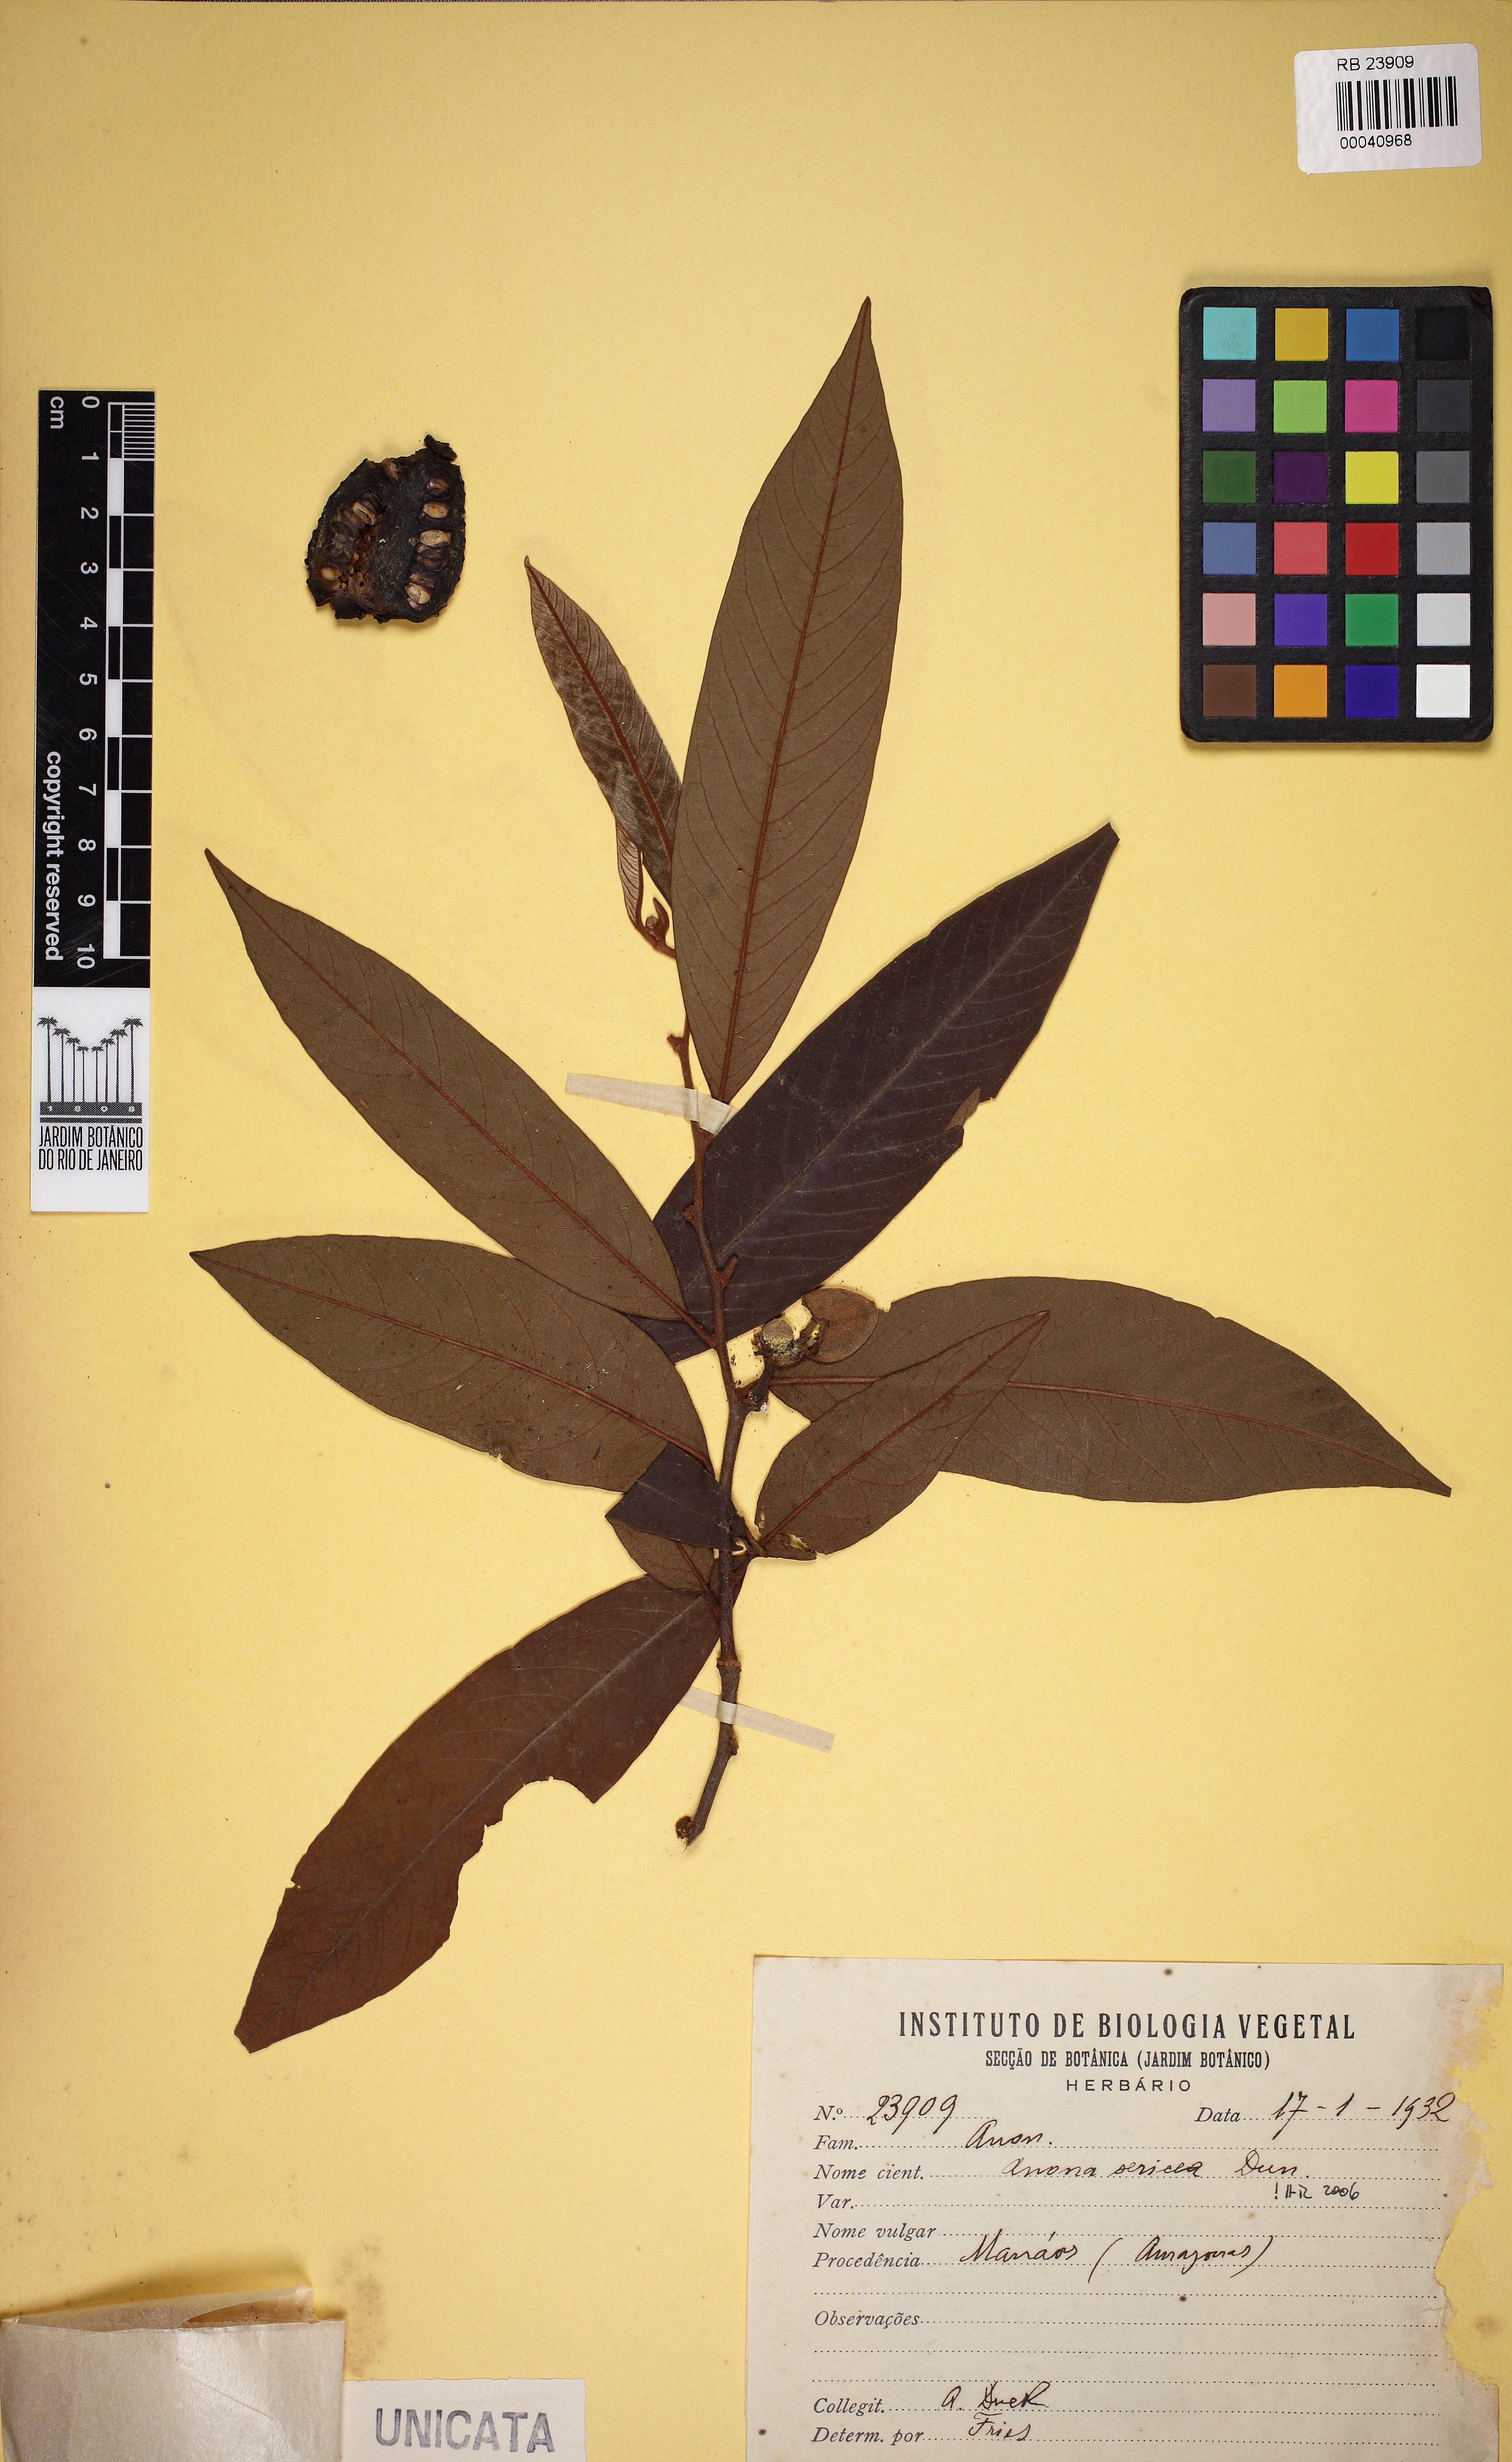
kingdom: Plantae
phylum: Tracheophyta
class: Magnoliopsida
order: Magnoliales
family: Annonaceae
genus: Annona
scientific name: Annona sericea
